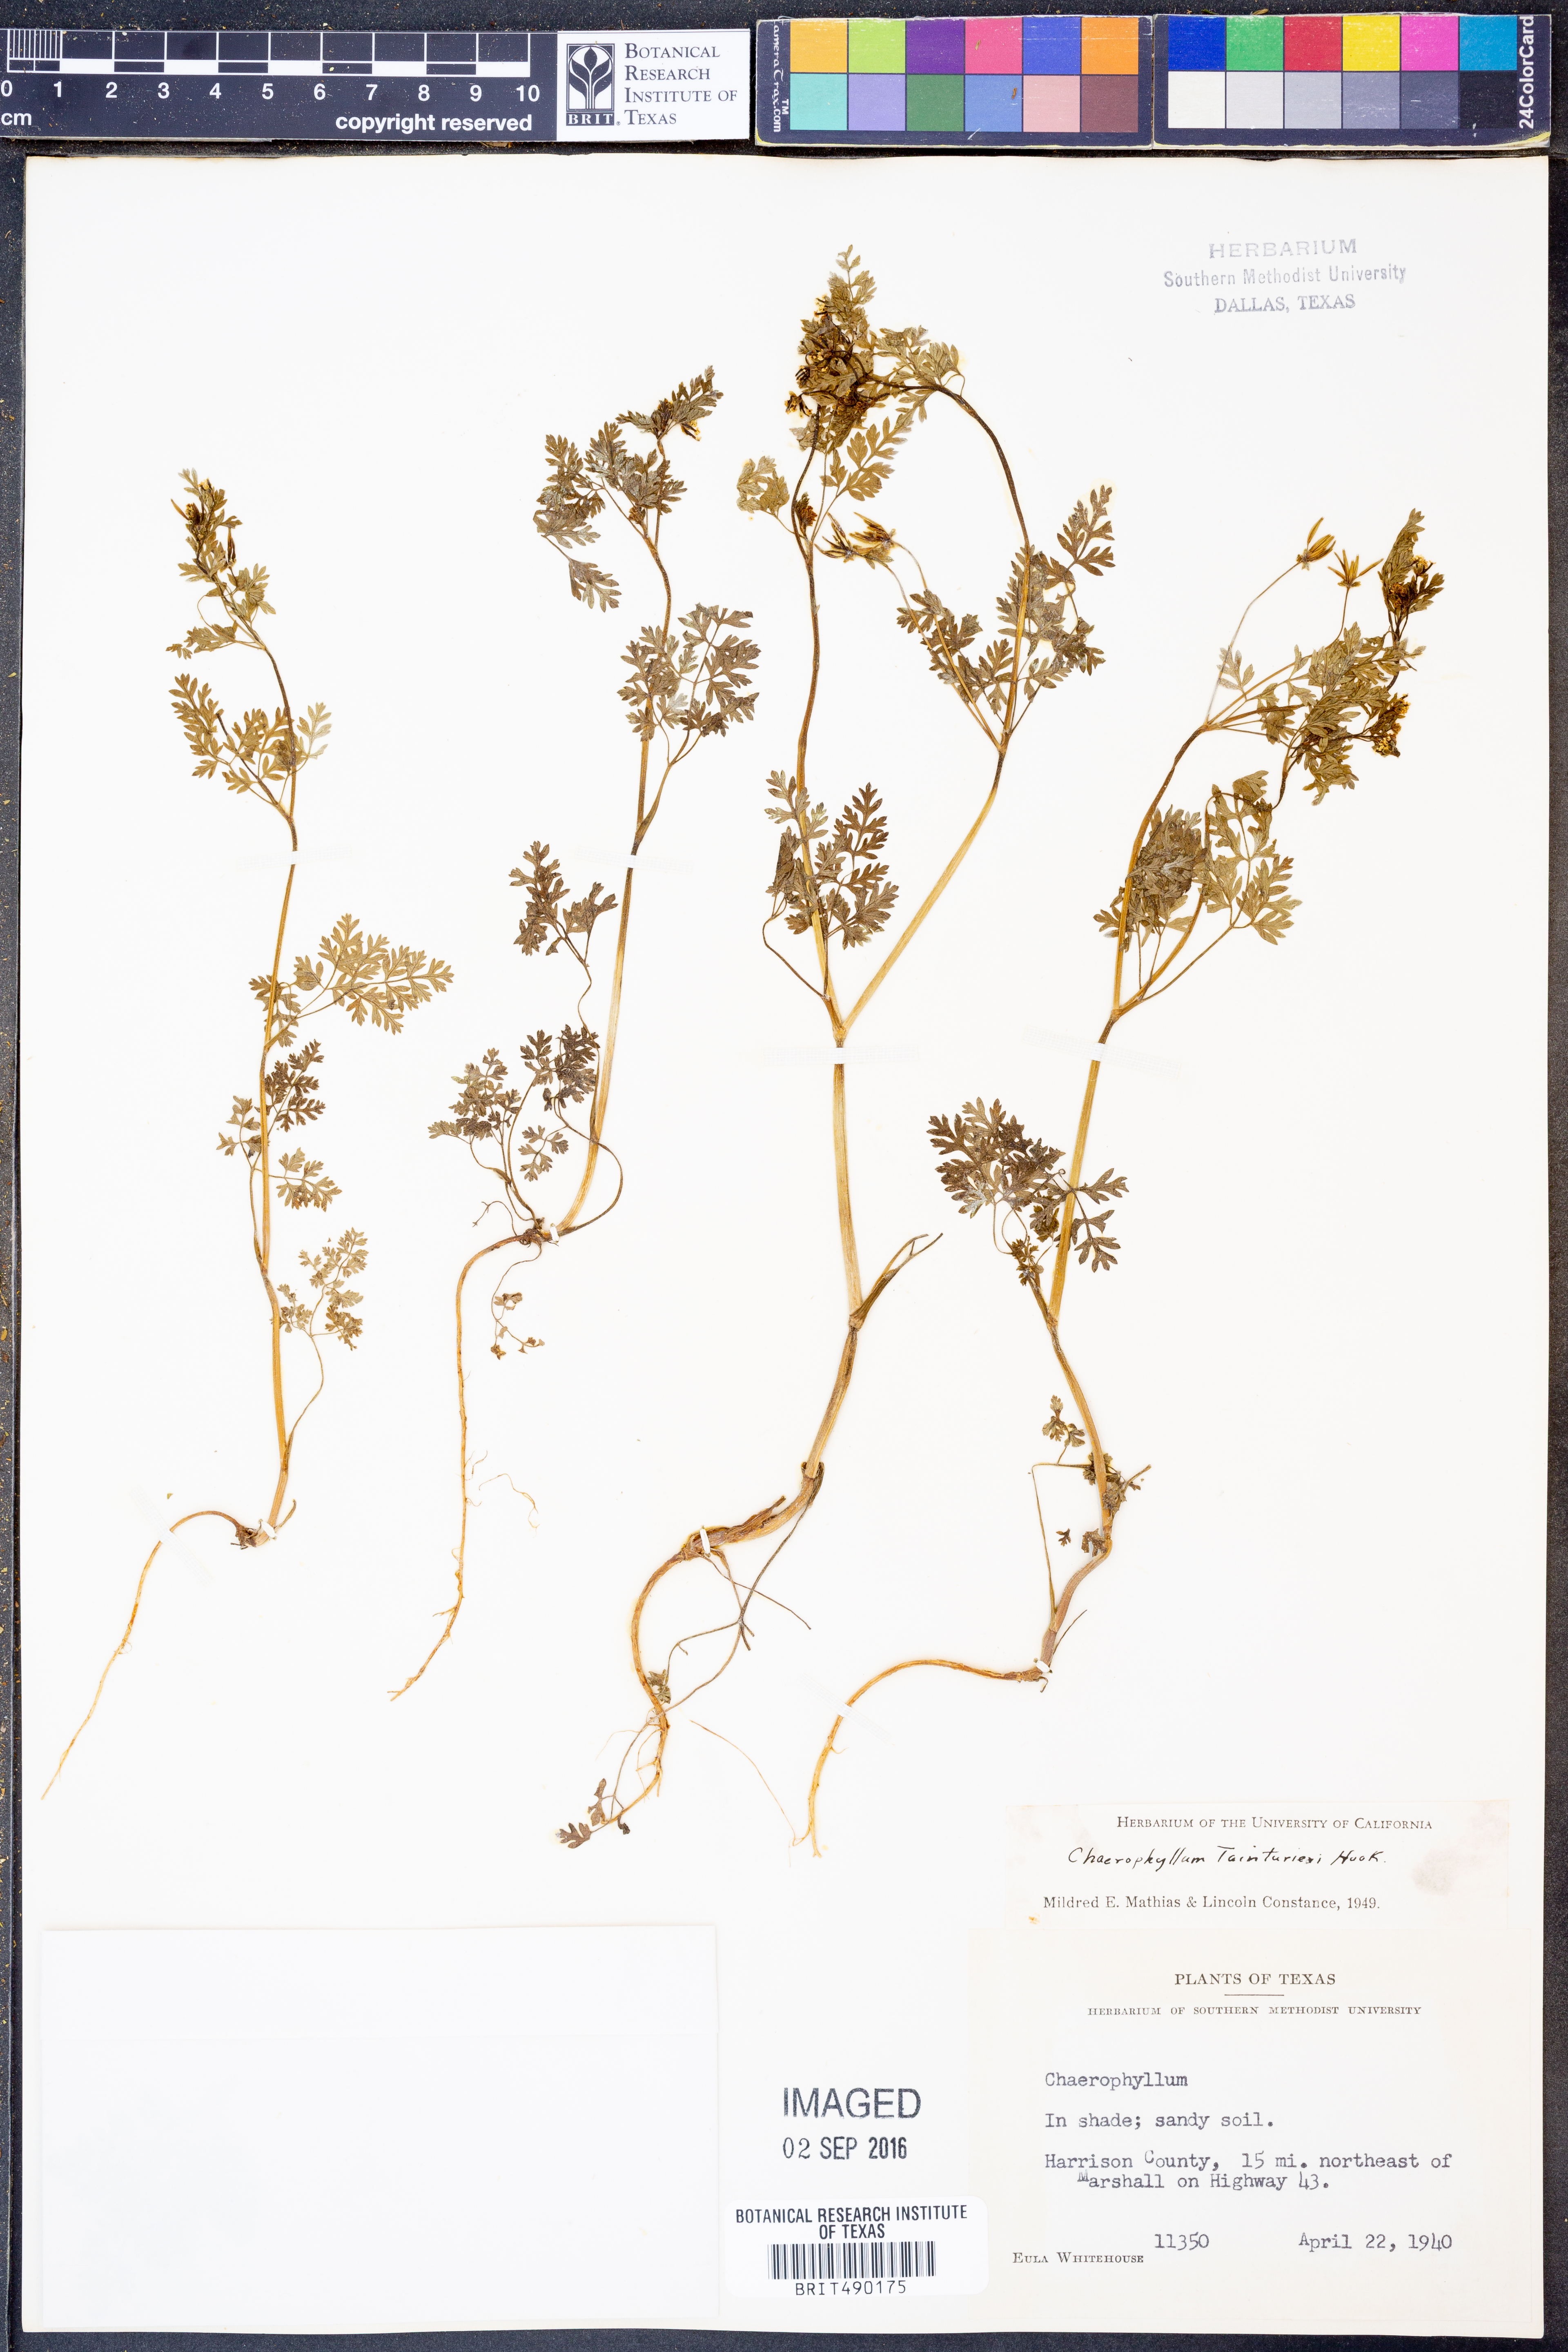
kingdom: Plantae
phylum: Tracheophyta
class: Magnoliopsida
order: Apiales
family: Apiaceae
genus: Chaerophyllum
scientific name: Chaerophyllum tainturieri
